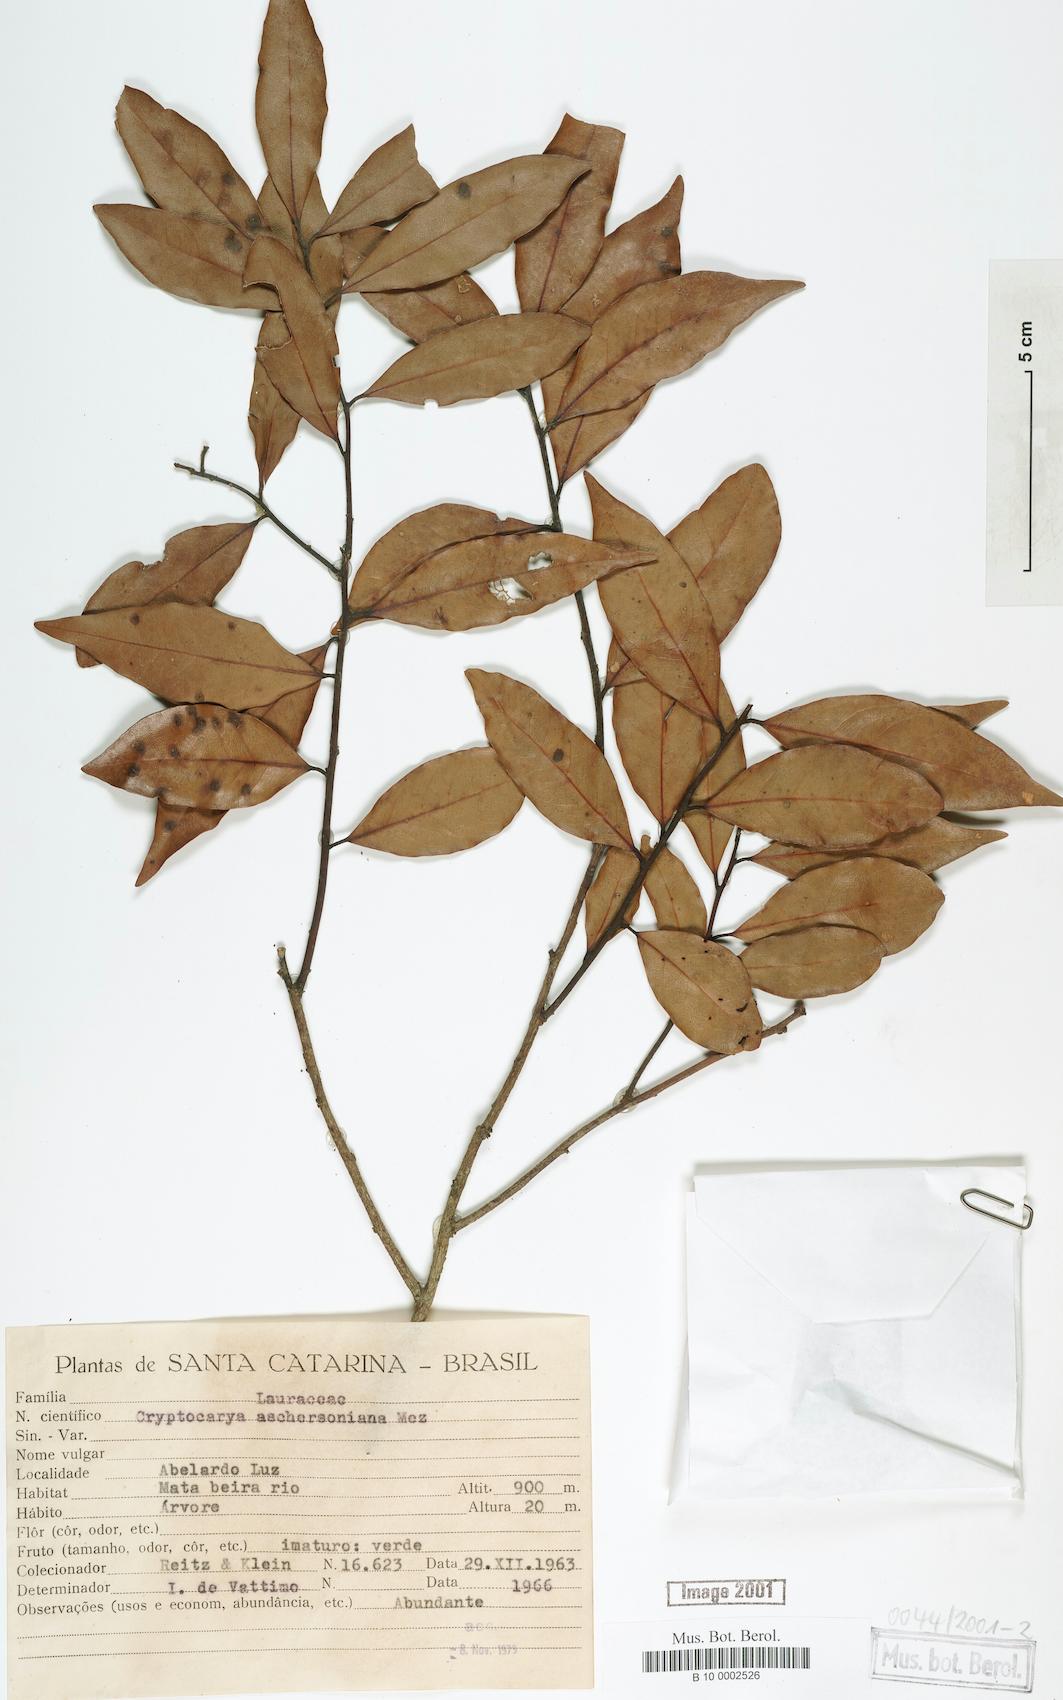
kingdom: Plantae
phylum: Tracheophyta
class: Magnoliopsida
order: Laurales
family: Lauraceae
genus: Cryptocarya
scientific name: Cryptocarya aschersoniana
